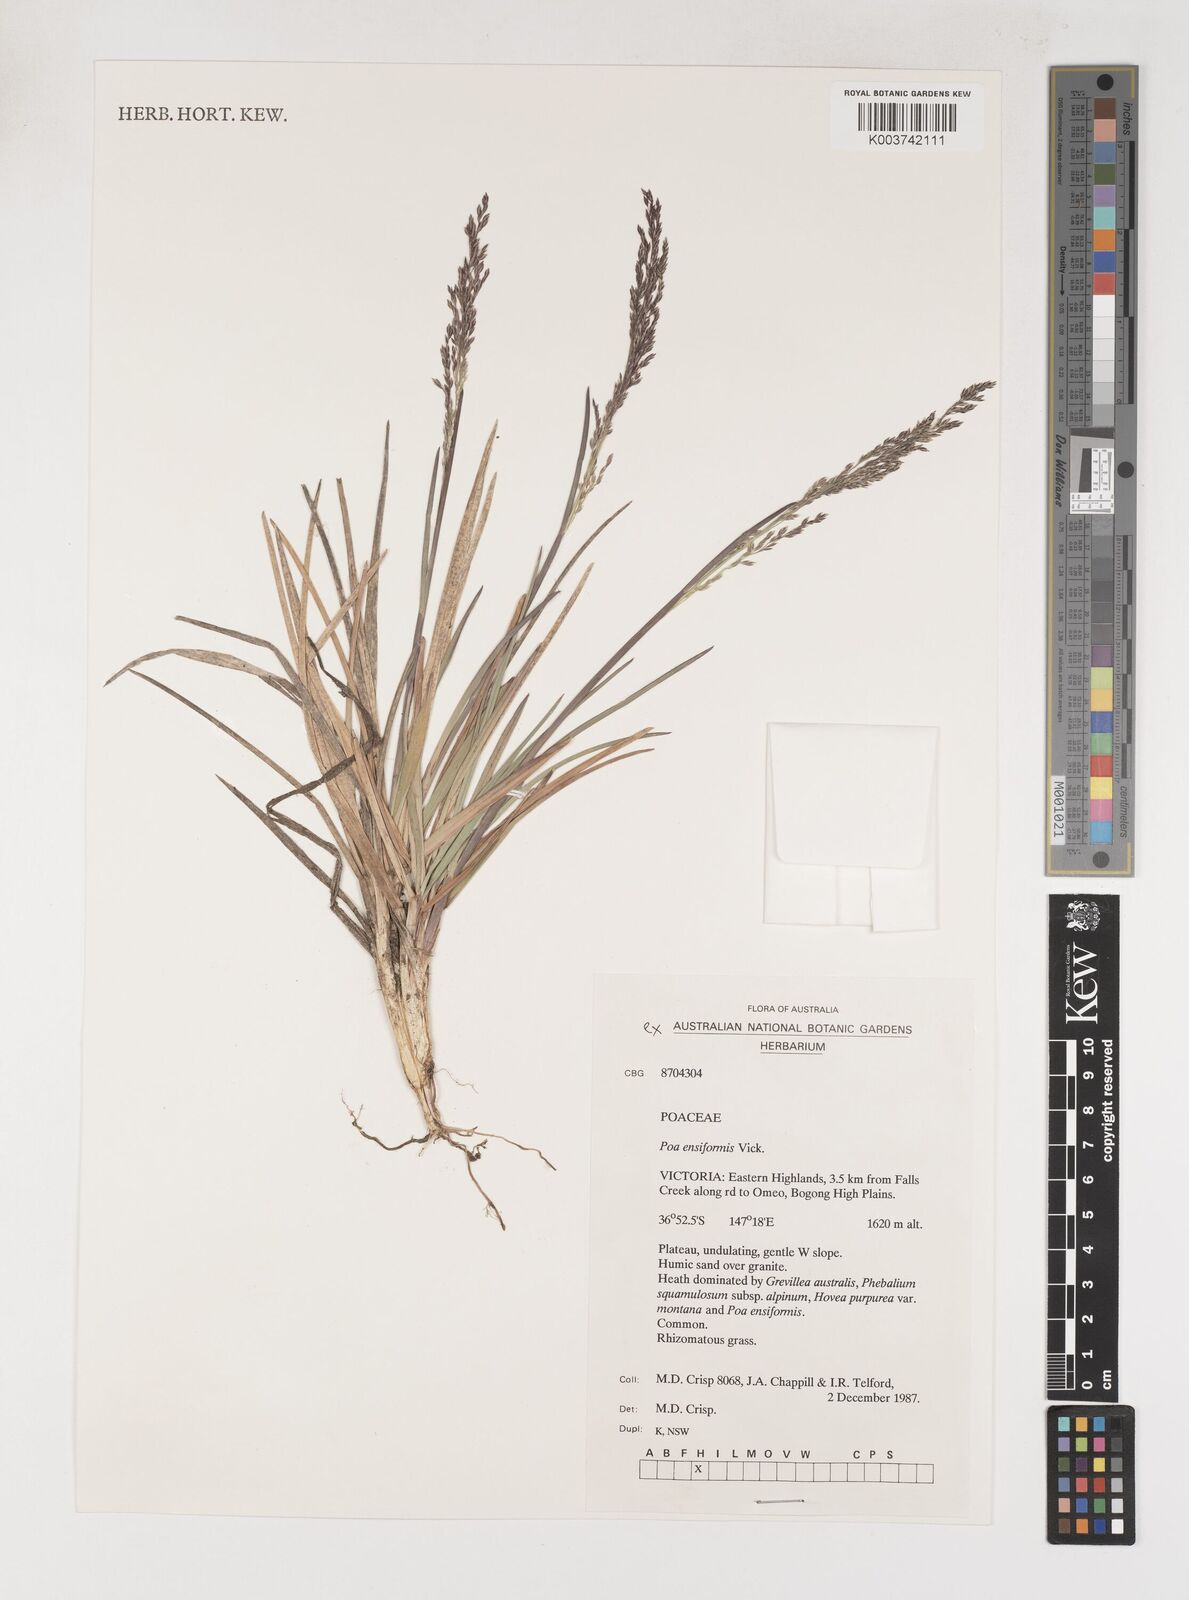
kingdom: Plantae
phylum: Tracheophyta
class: Liliopsida
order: Poales
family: Poaceae
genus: Poa
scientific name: Poa ensiformis
